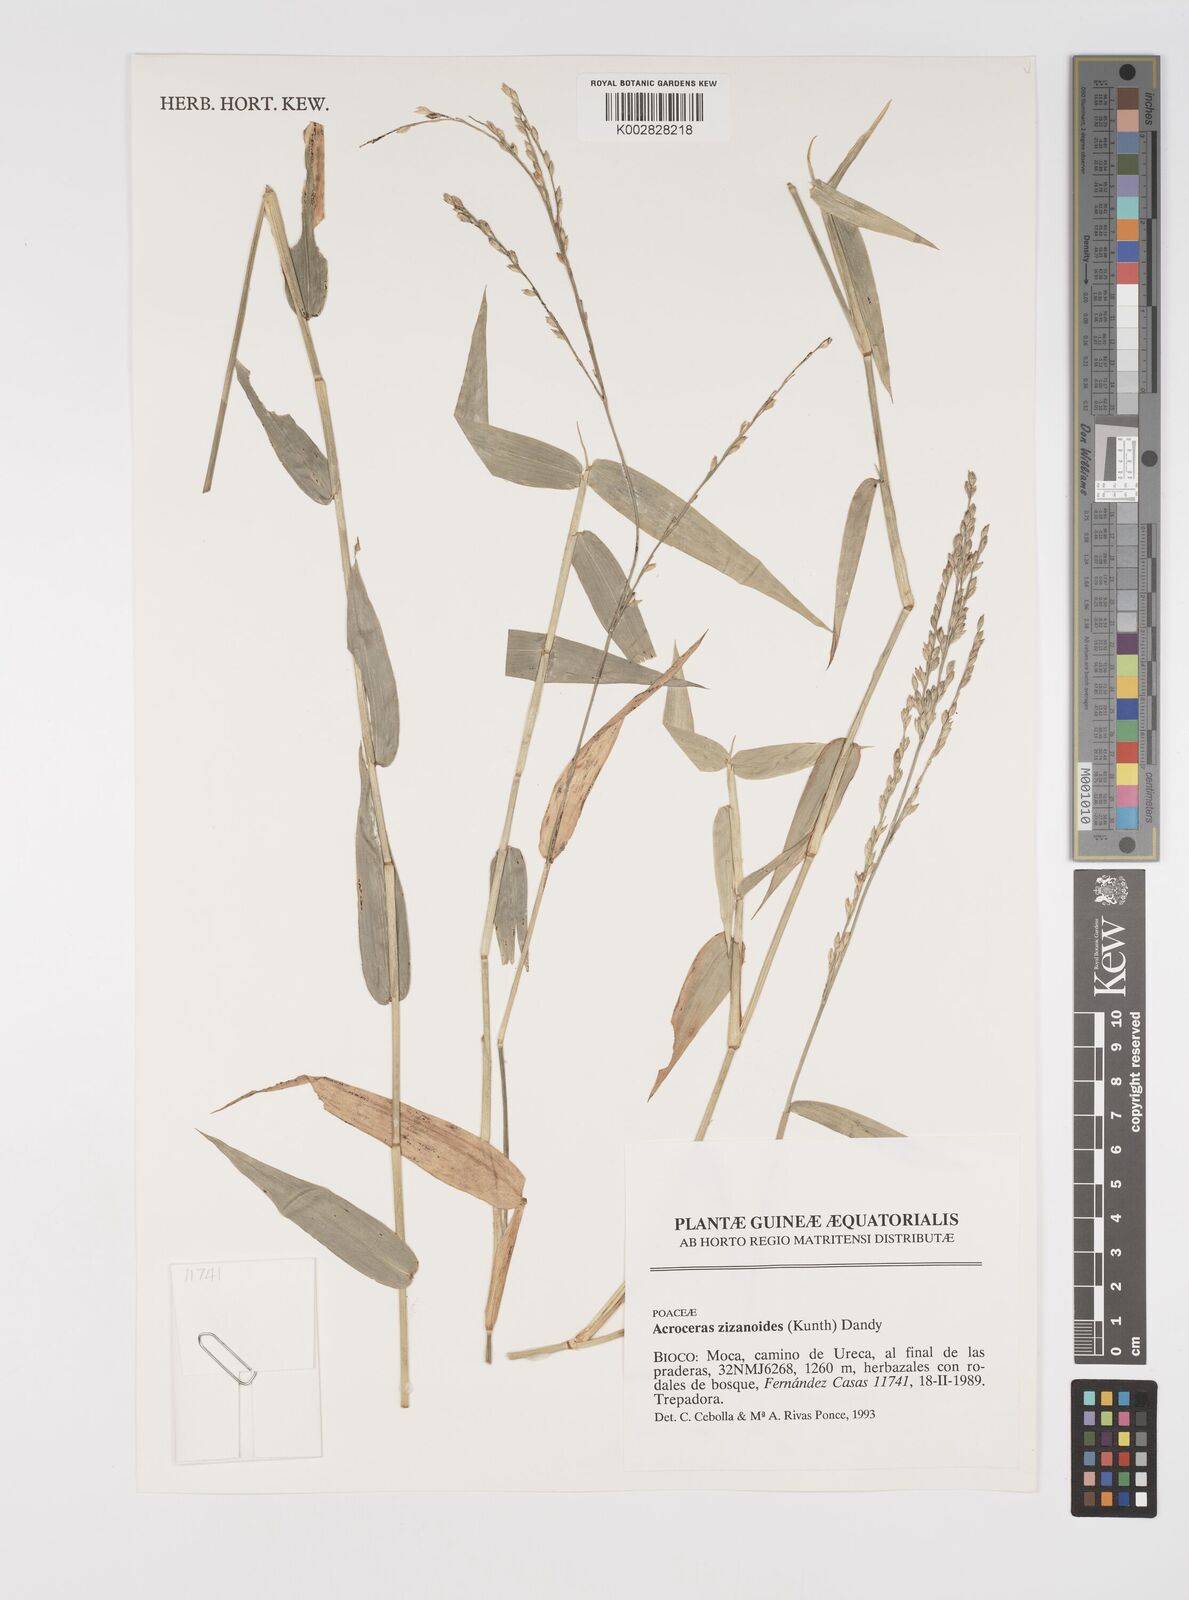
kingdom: Plantae
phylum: Tracheophyta
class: Liliopsida
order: Poales
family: Poaceae
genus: Acroceras
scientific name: Acroceras zizanioides
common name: Oat grass
